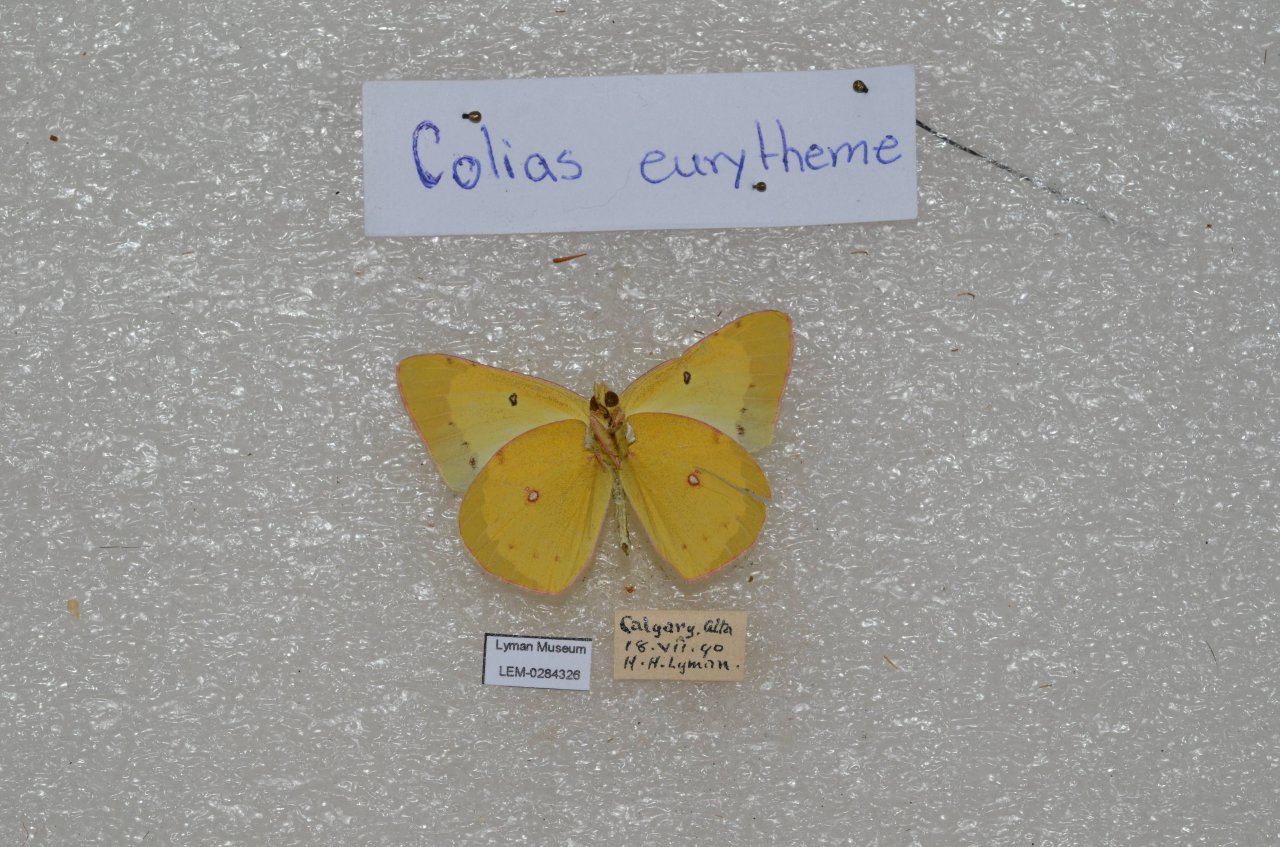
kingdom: Animalia
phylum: Arthropoda
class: Insecta
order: Lepidoptera
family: Pieridae
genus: Colias
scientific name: Colias eurytheme
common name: Orange Sulphur
